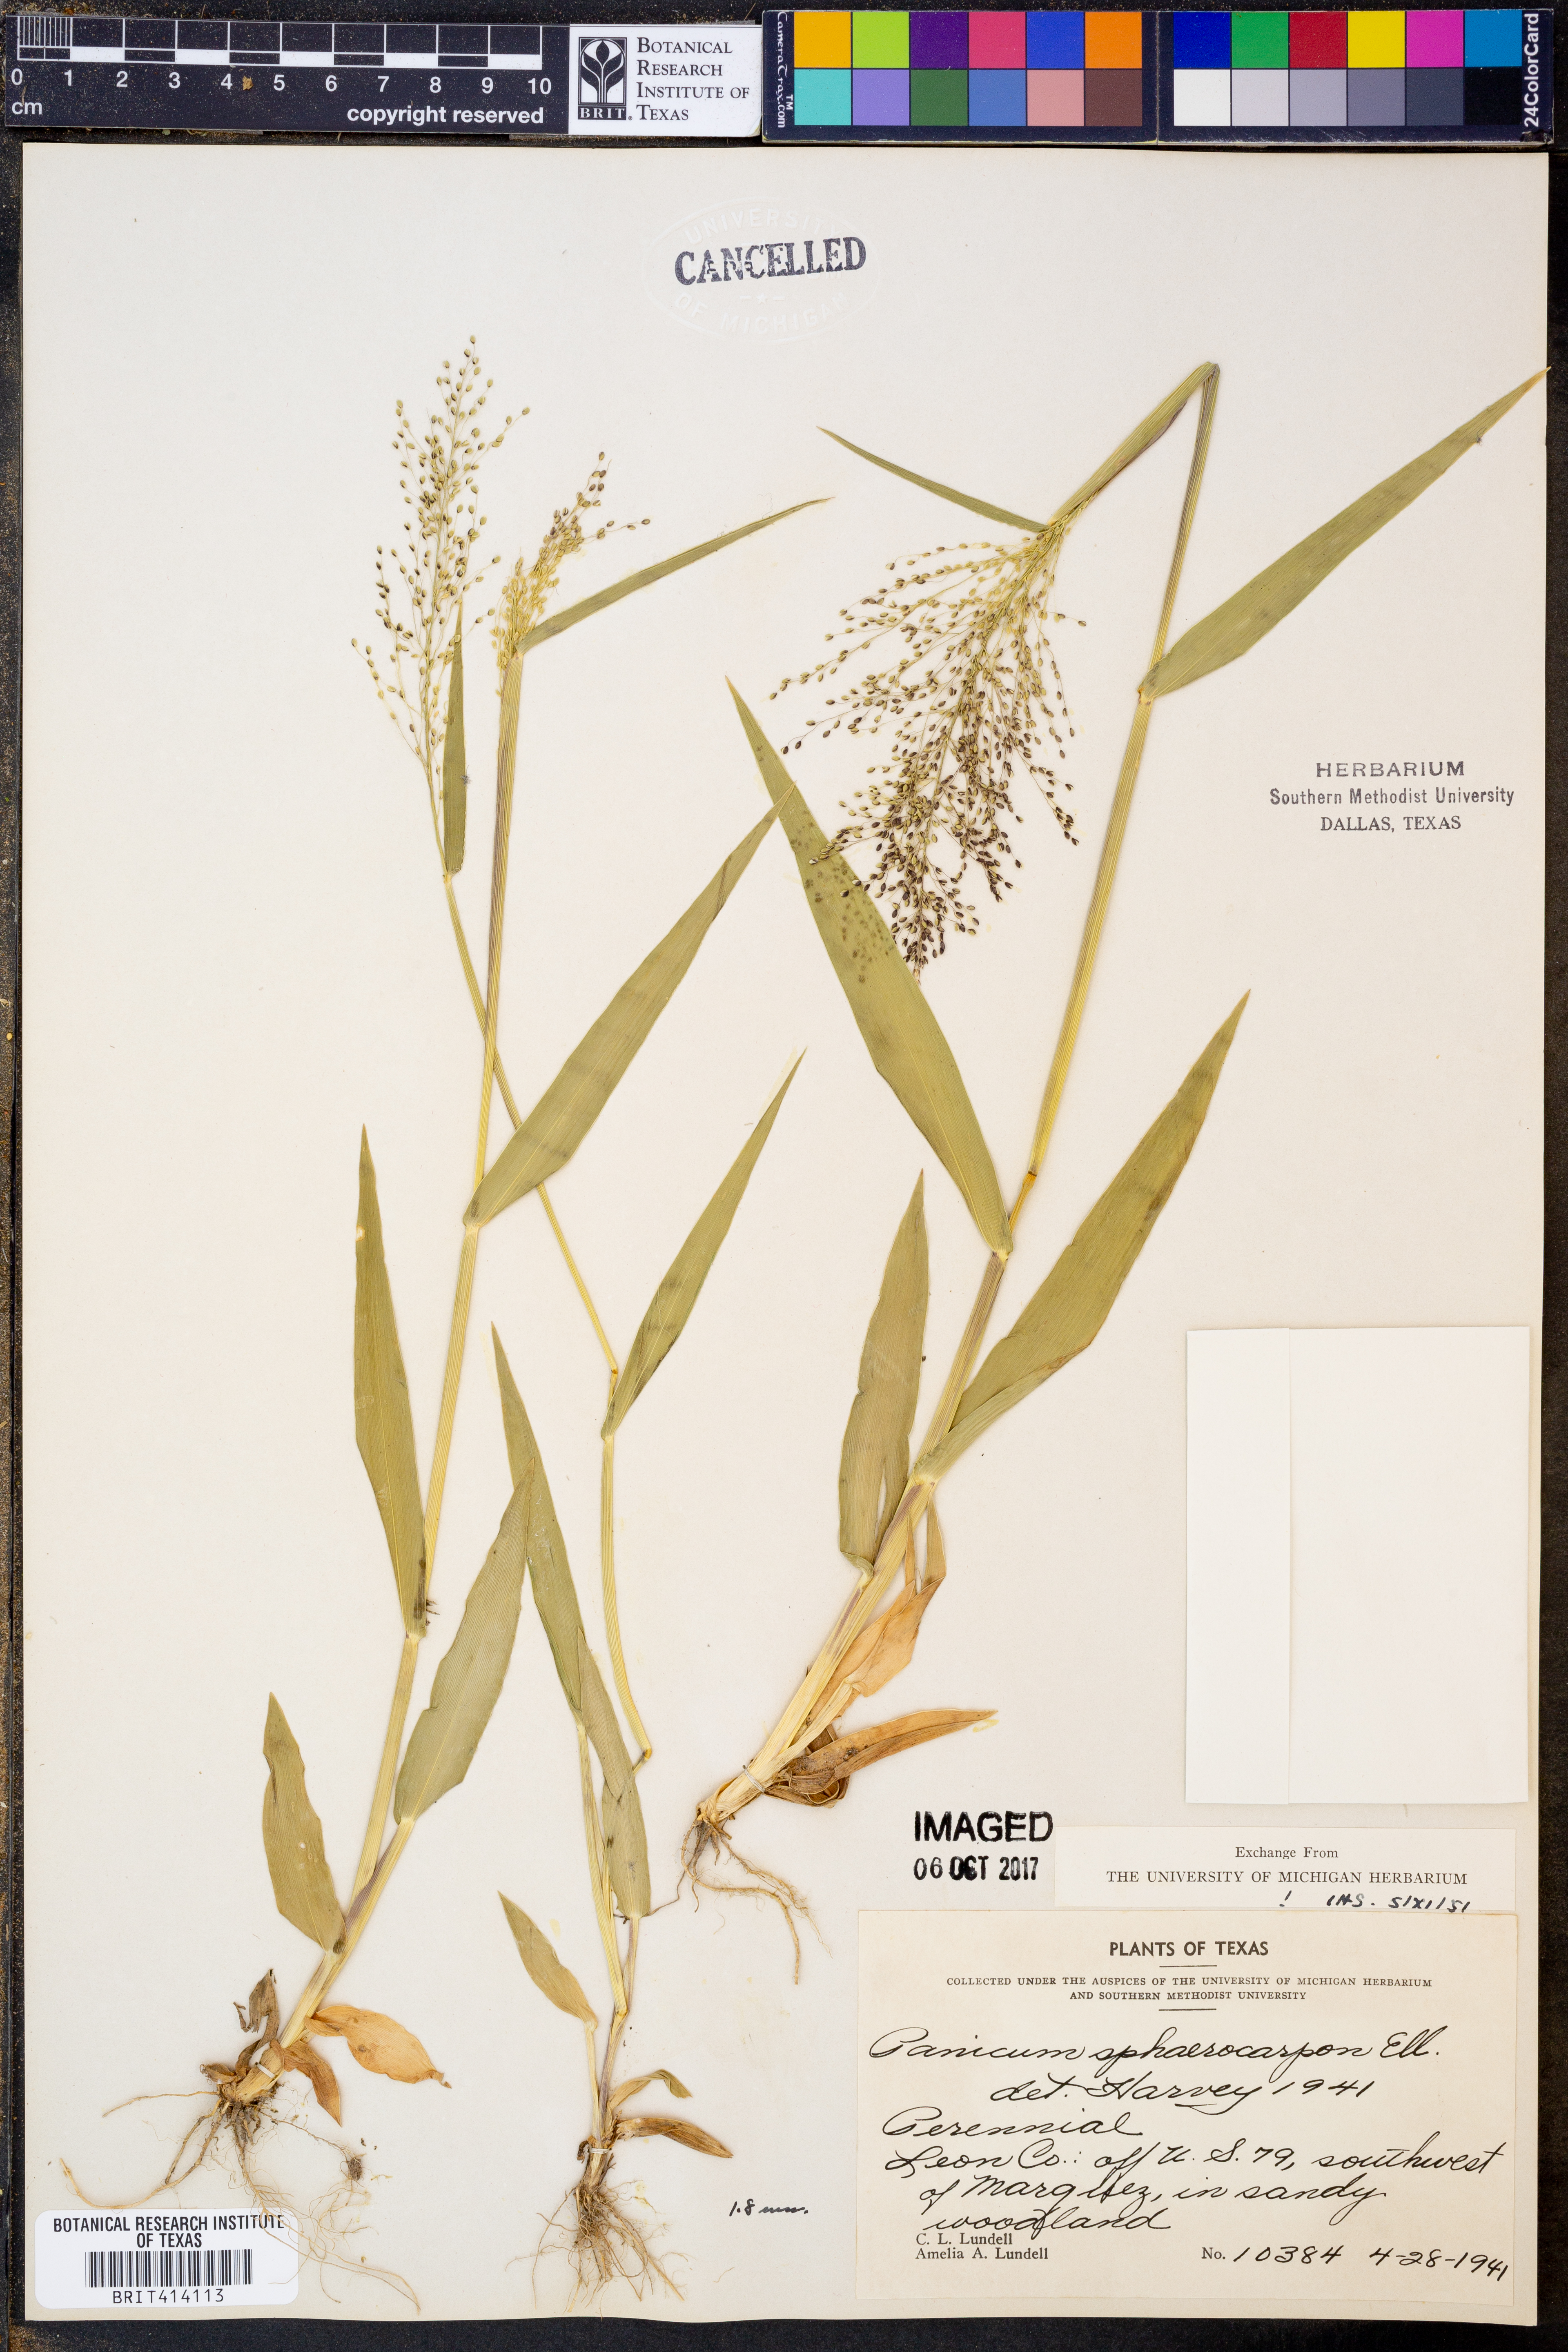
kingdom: Plantae
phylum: Tracheophyta
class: Liliopsida
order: Poales
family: Poaceae
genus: Dichanthelium
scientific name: Dichanthelium sphaerocarpon
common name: Round-fruited panicgrass
